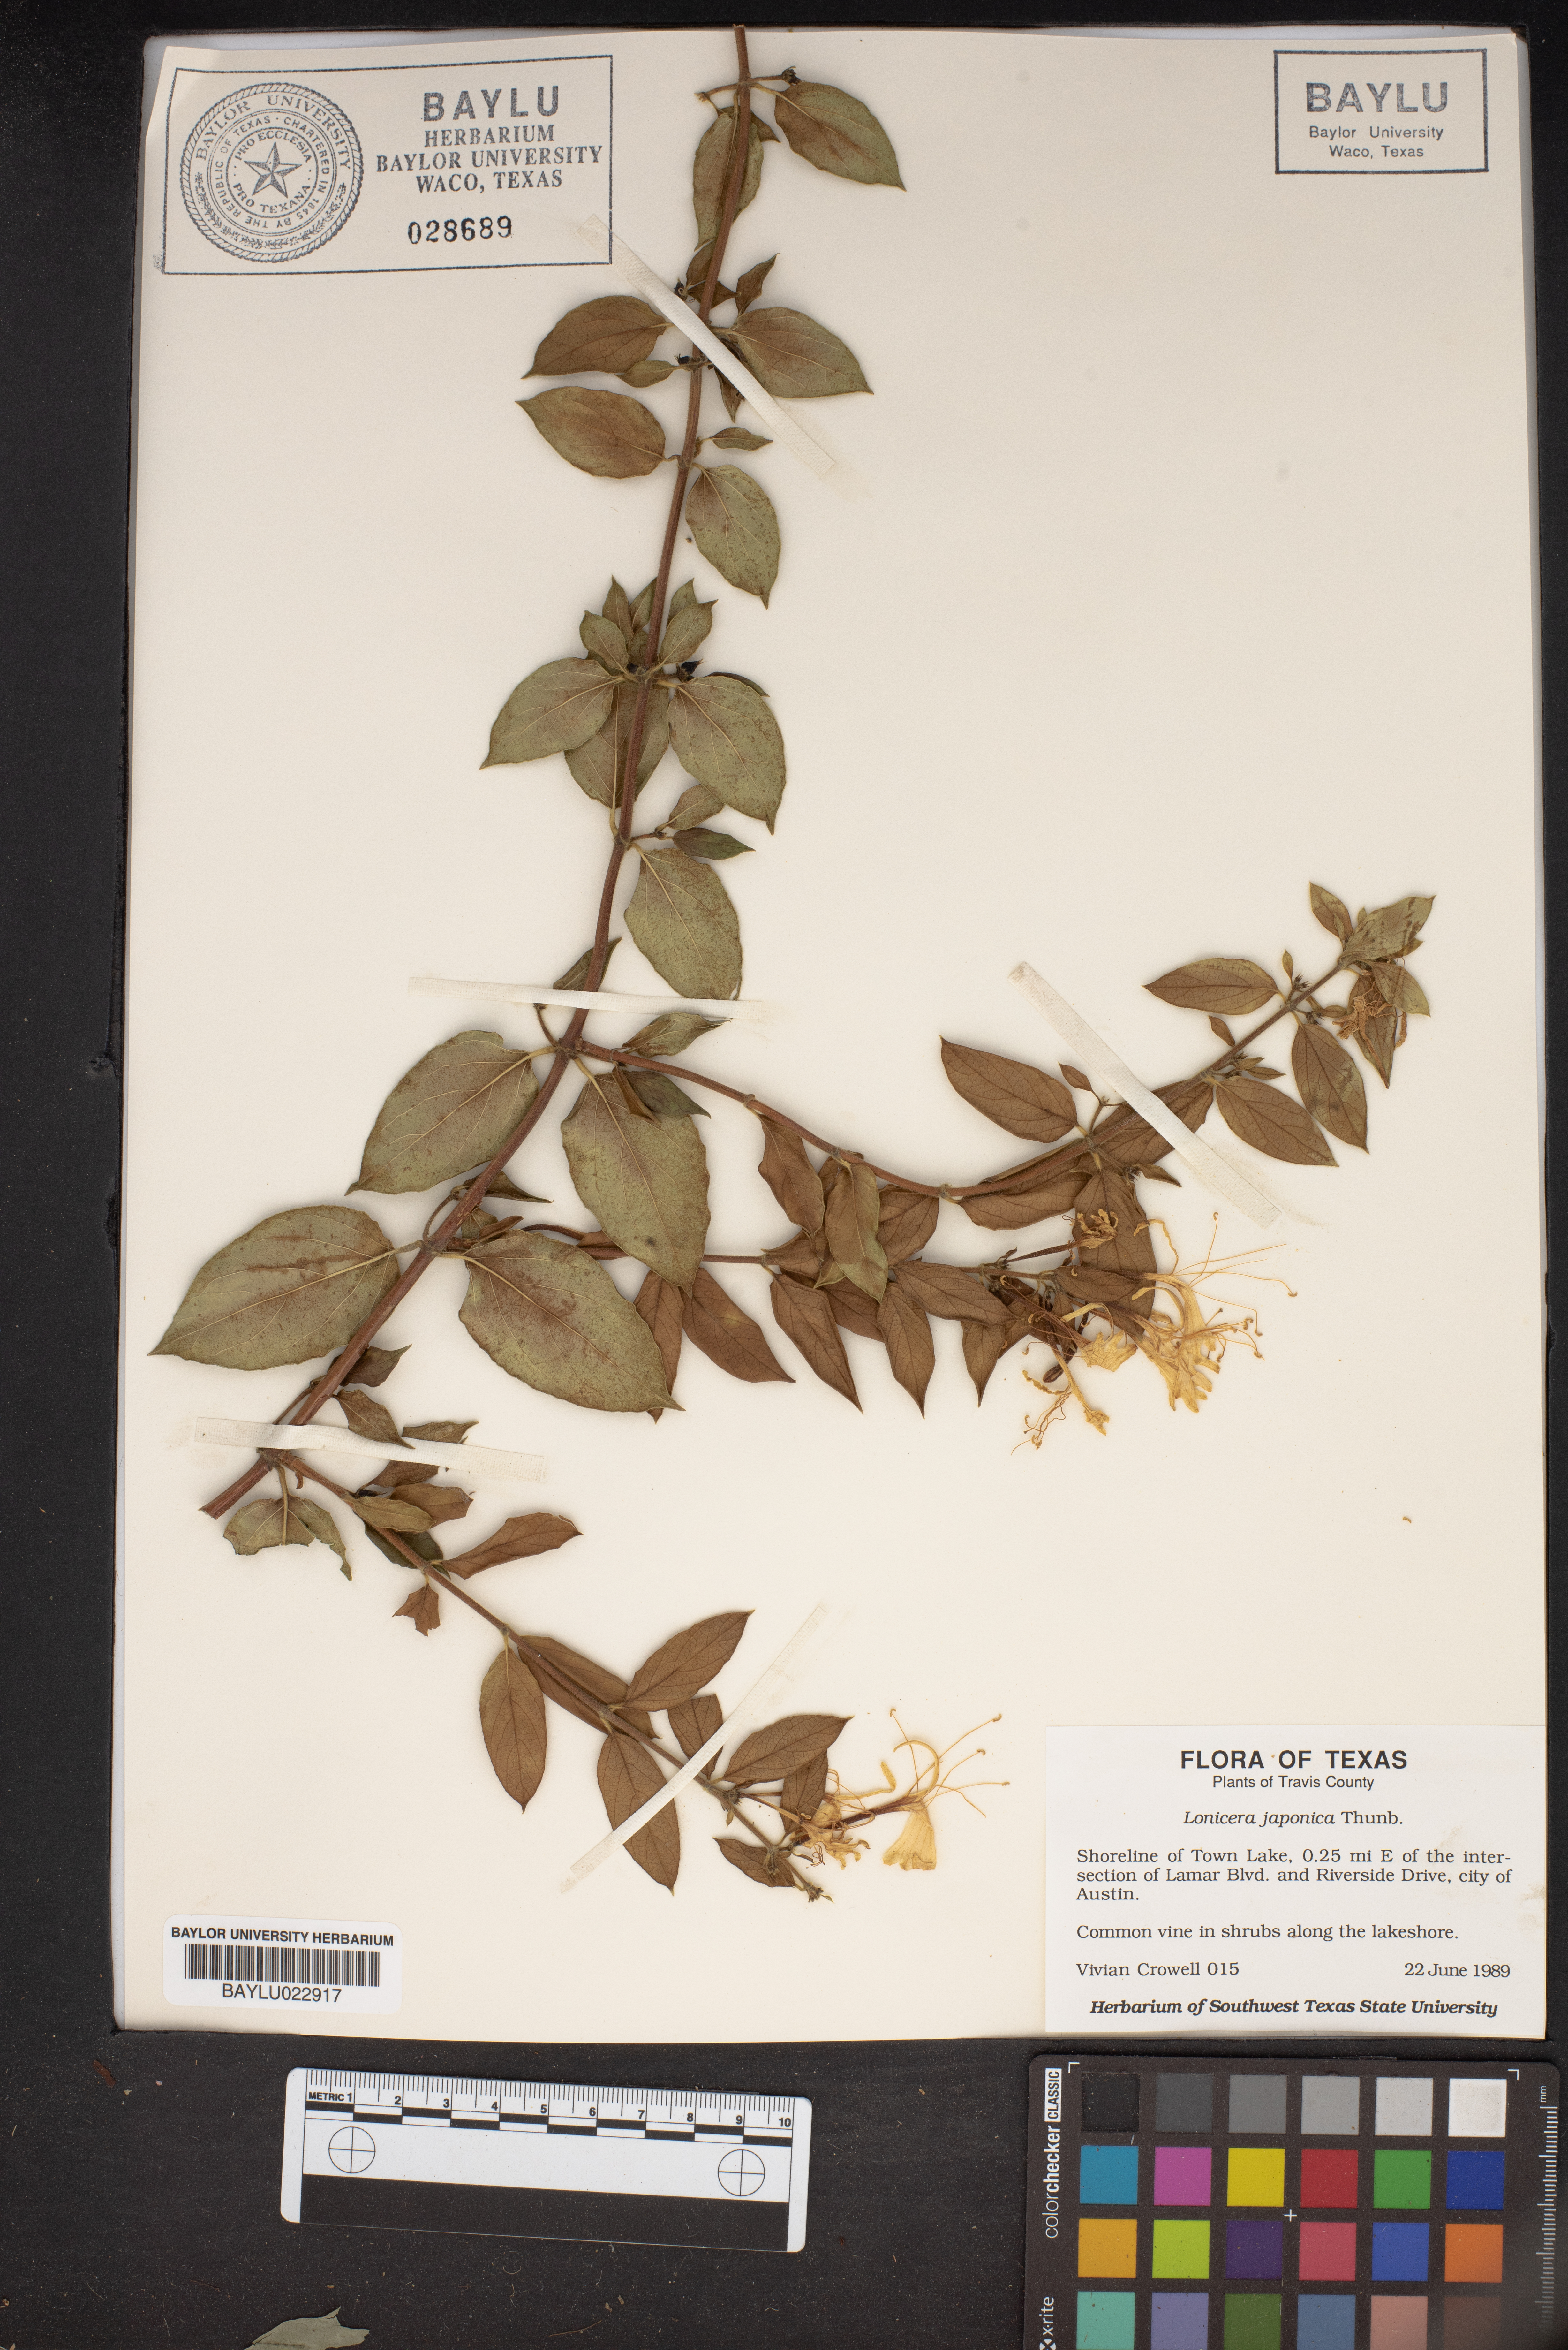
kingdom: Plantae
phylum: Tracheophyta
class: Magnoliopsida
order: Dipsacales
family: Caprifoliaceae
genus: Lonicera
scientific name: Lonicera japonica
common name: Japanese honeysuckle
